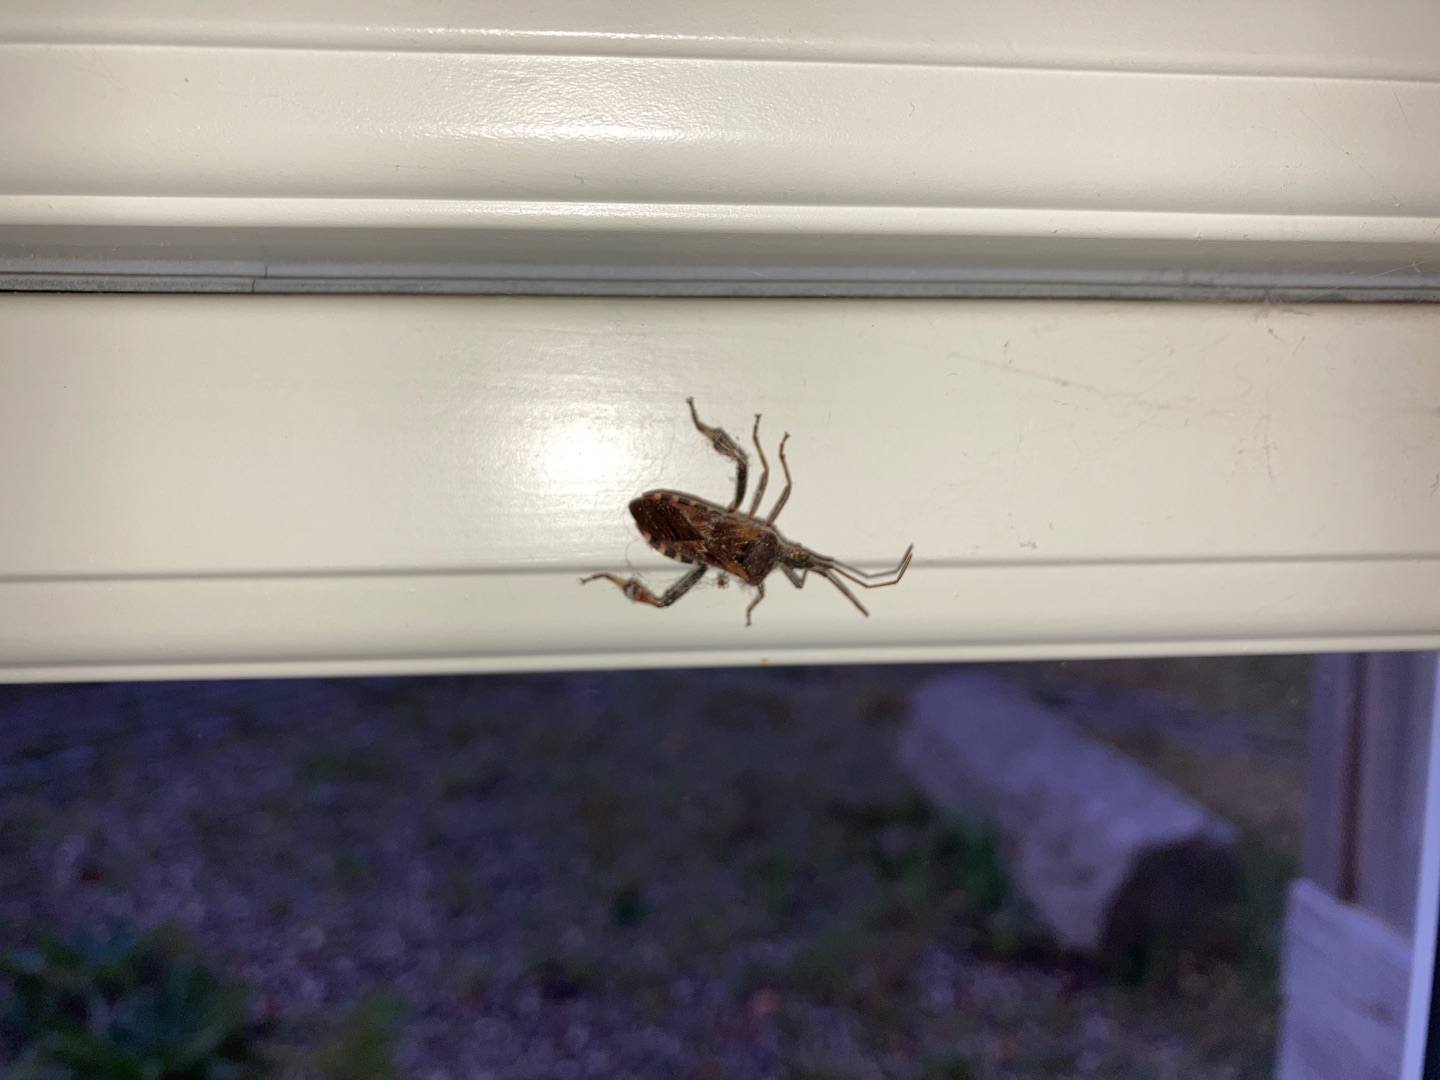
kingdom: Animalia
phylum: Arthropoda
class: Insecta
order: Hemiptera
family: Coreidae
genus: Leptoglossus
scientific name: Leptoglossus occidentalis
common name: Amerikansk fyrretæge
